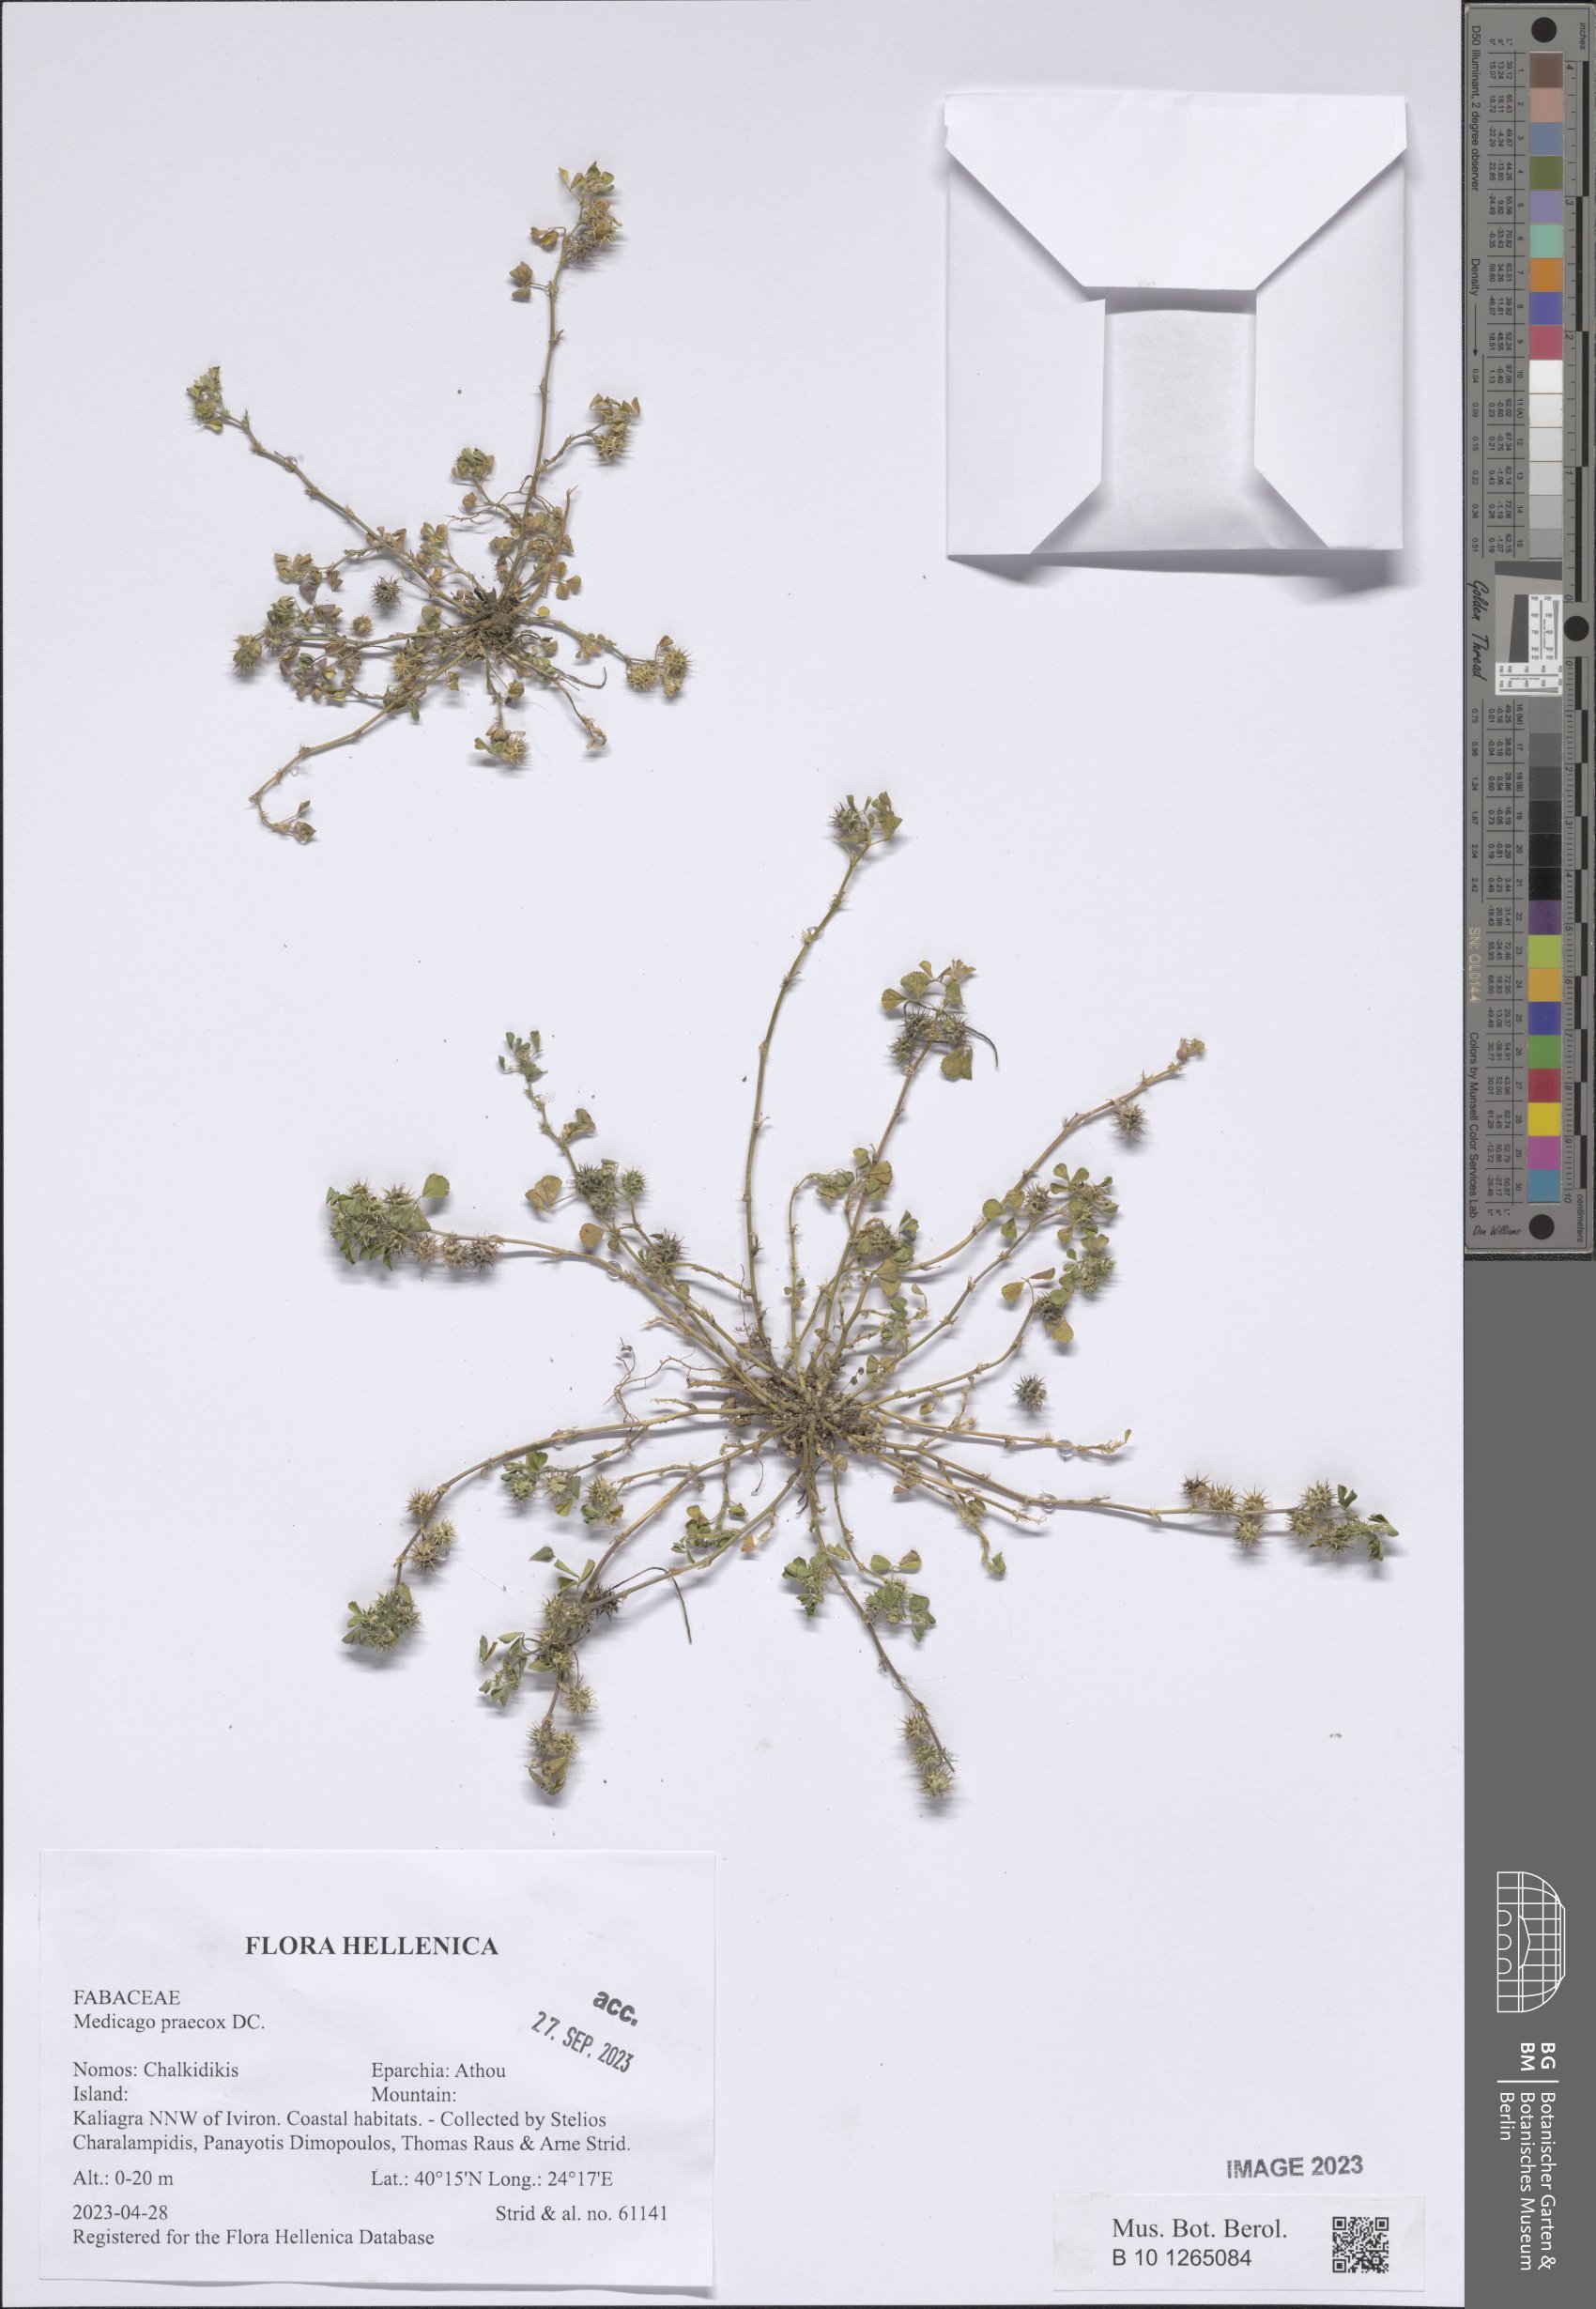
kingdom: Plantae
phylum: Tracheophyta
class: Magnoliopsida
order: Fabales
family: Fabaceae
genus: Medicago
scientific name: Medicago praecox
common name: Early medick
